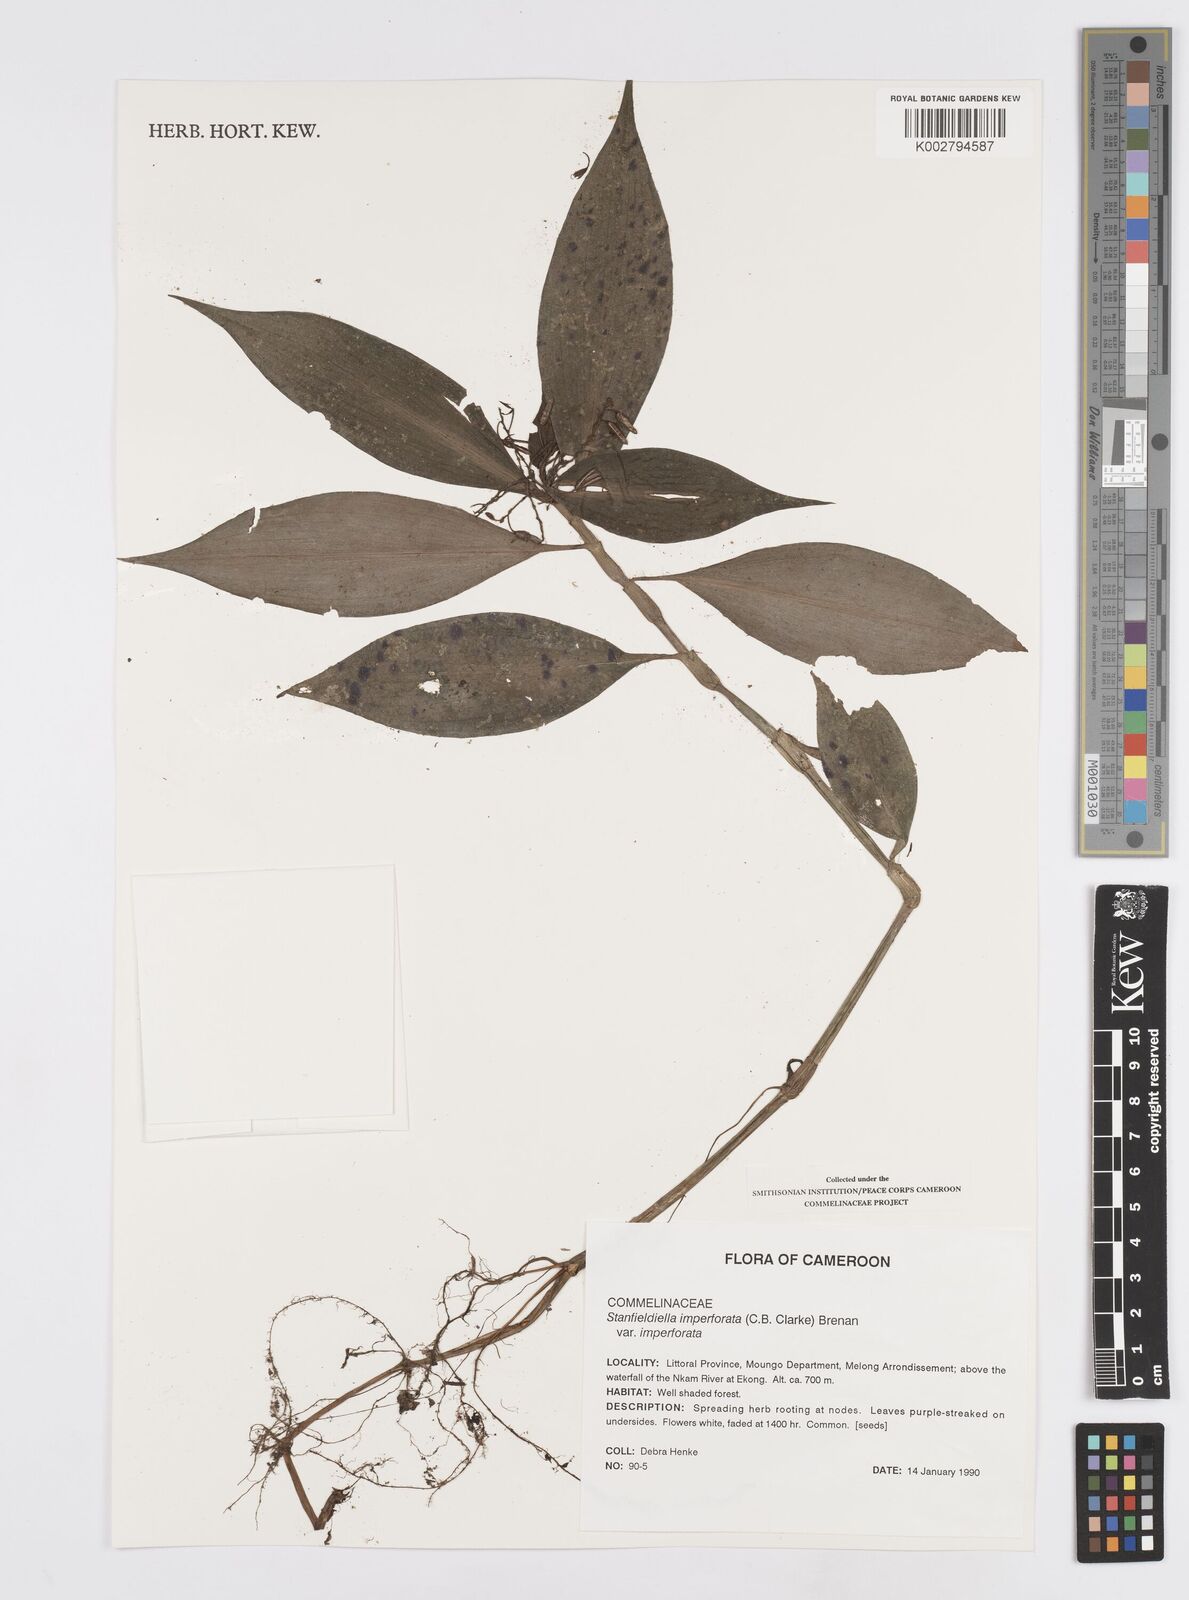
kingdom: Plantae
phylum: Tracheophyta
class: Liliopsida
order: Commelinales
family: Commelinaceae
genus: Stanfieldiella
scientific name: Stanfieldiella imperforata
